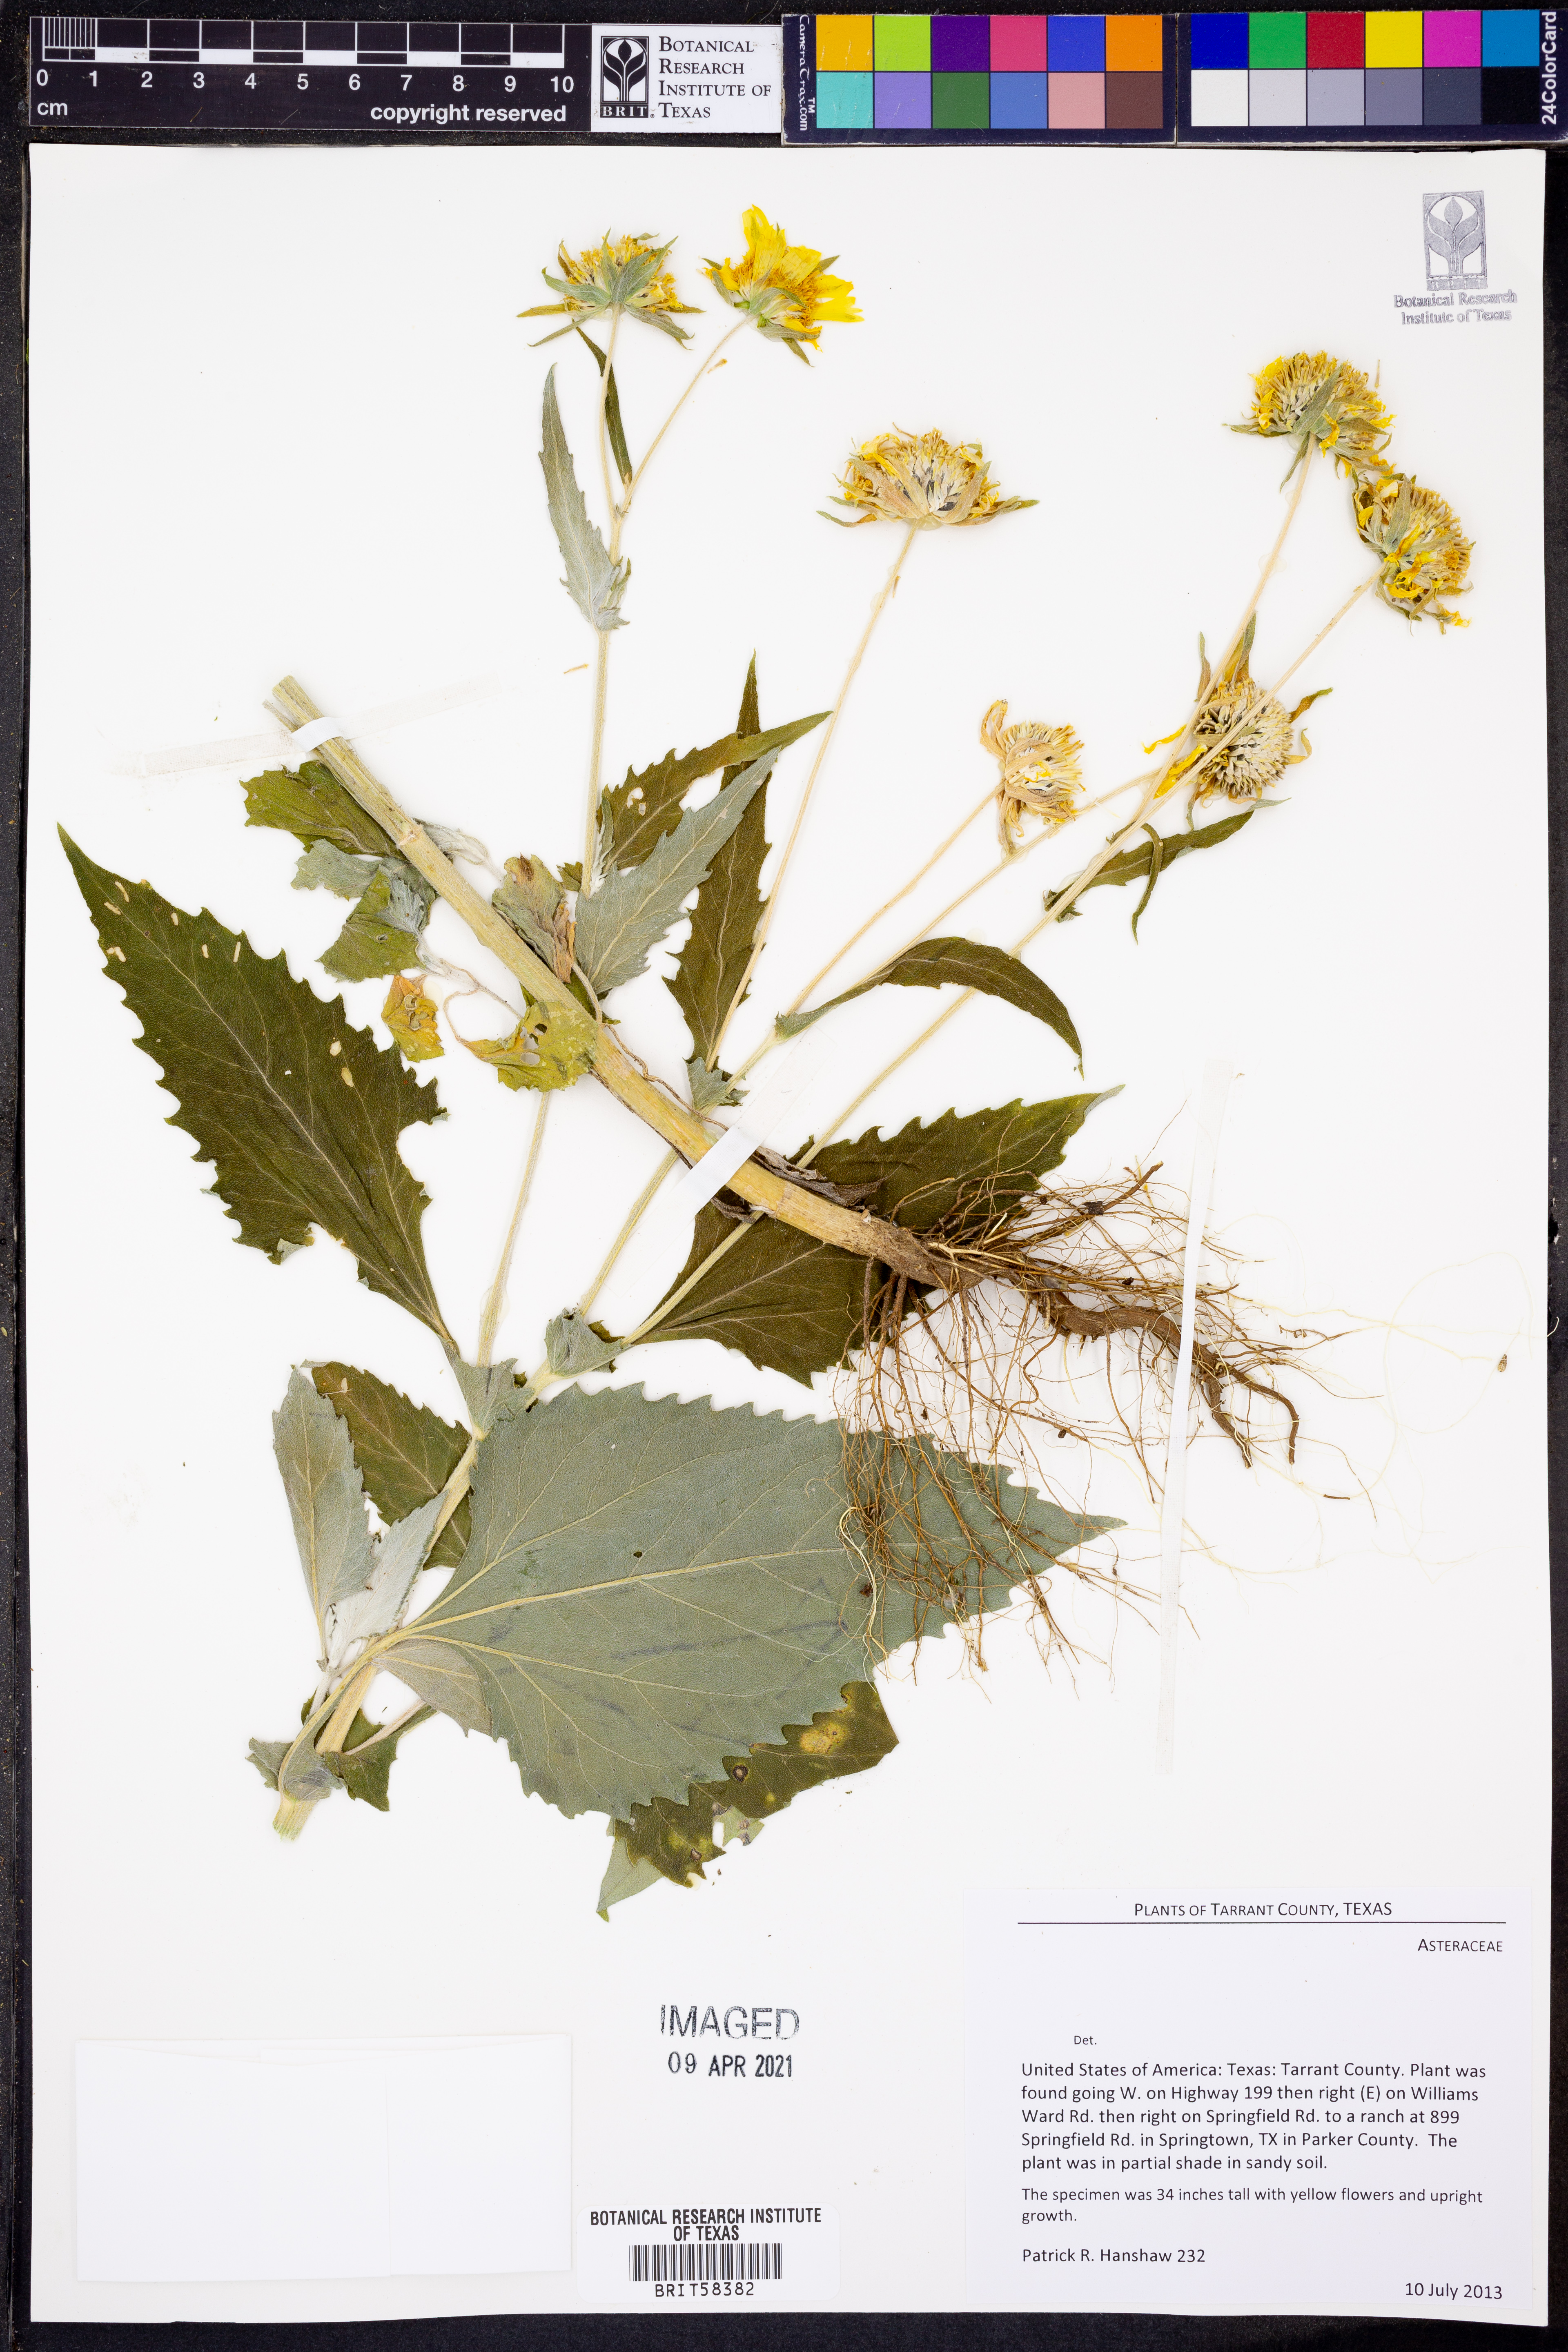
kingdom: Plantae
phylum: Tracheophyta
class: Magnoliopsida
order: Ranunculales
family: Papaveraceae
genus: Argemone
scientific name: Argemone albiflora
